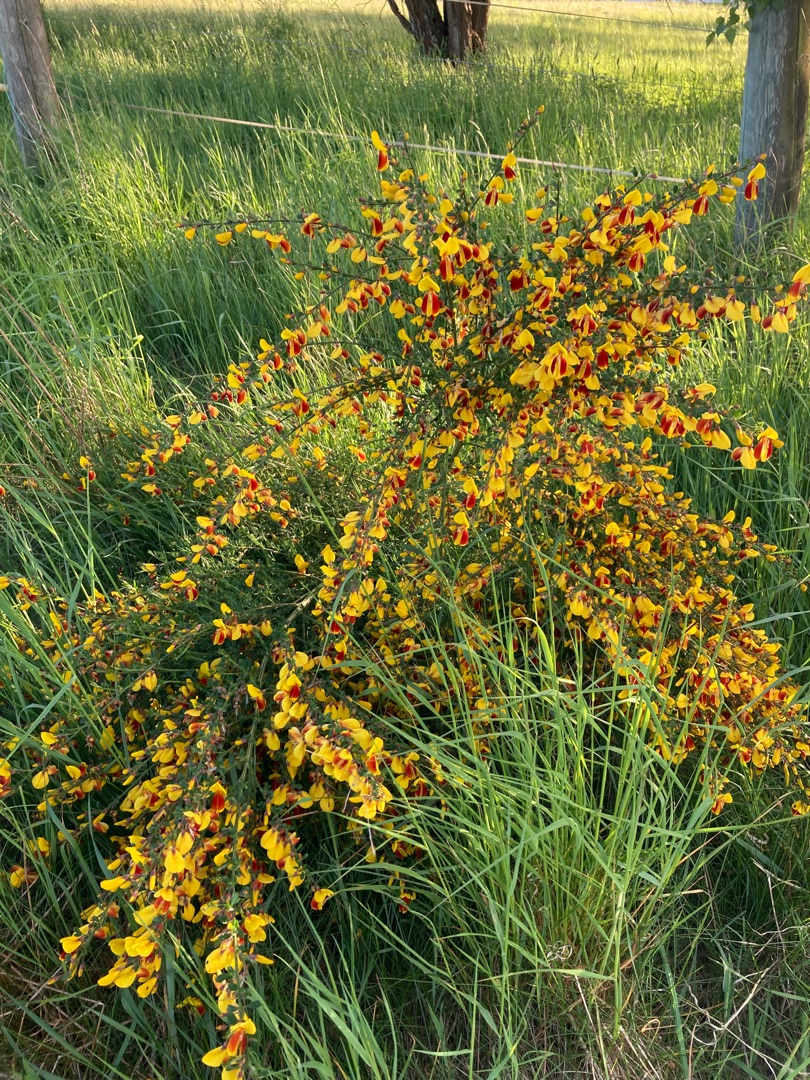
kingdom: Plantae
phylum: Tracheophyta
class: Magnoliopsida
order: Fabales
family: Fabaceae
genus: Cytisus
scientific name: Cytisus scoparius
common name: Almindelig gyvel
